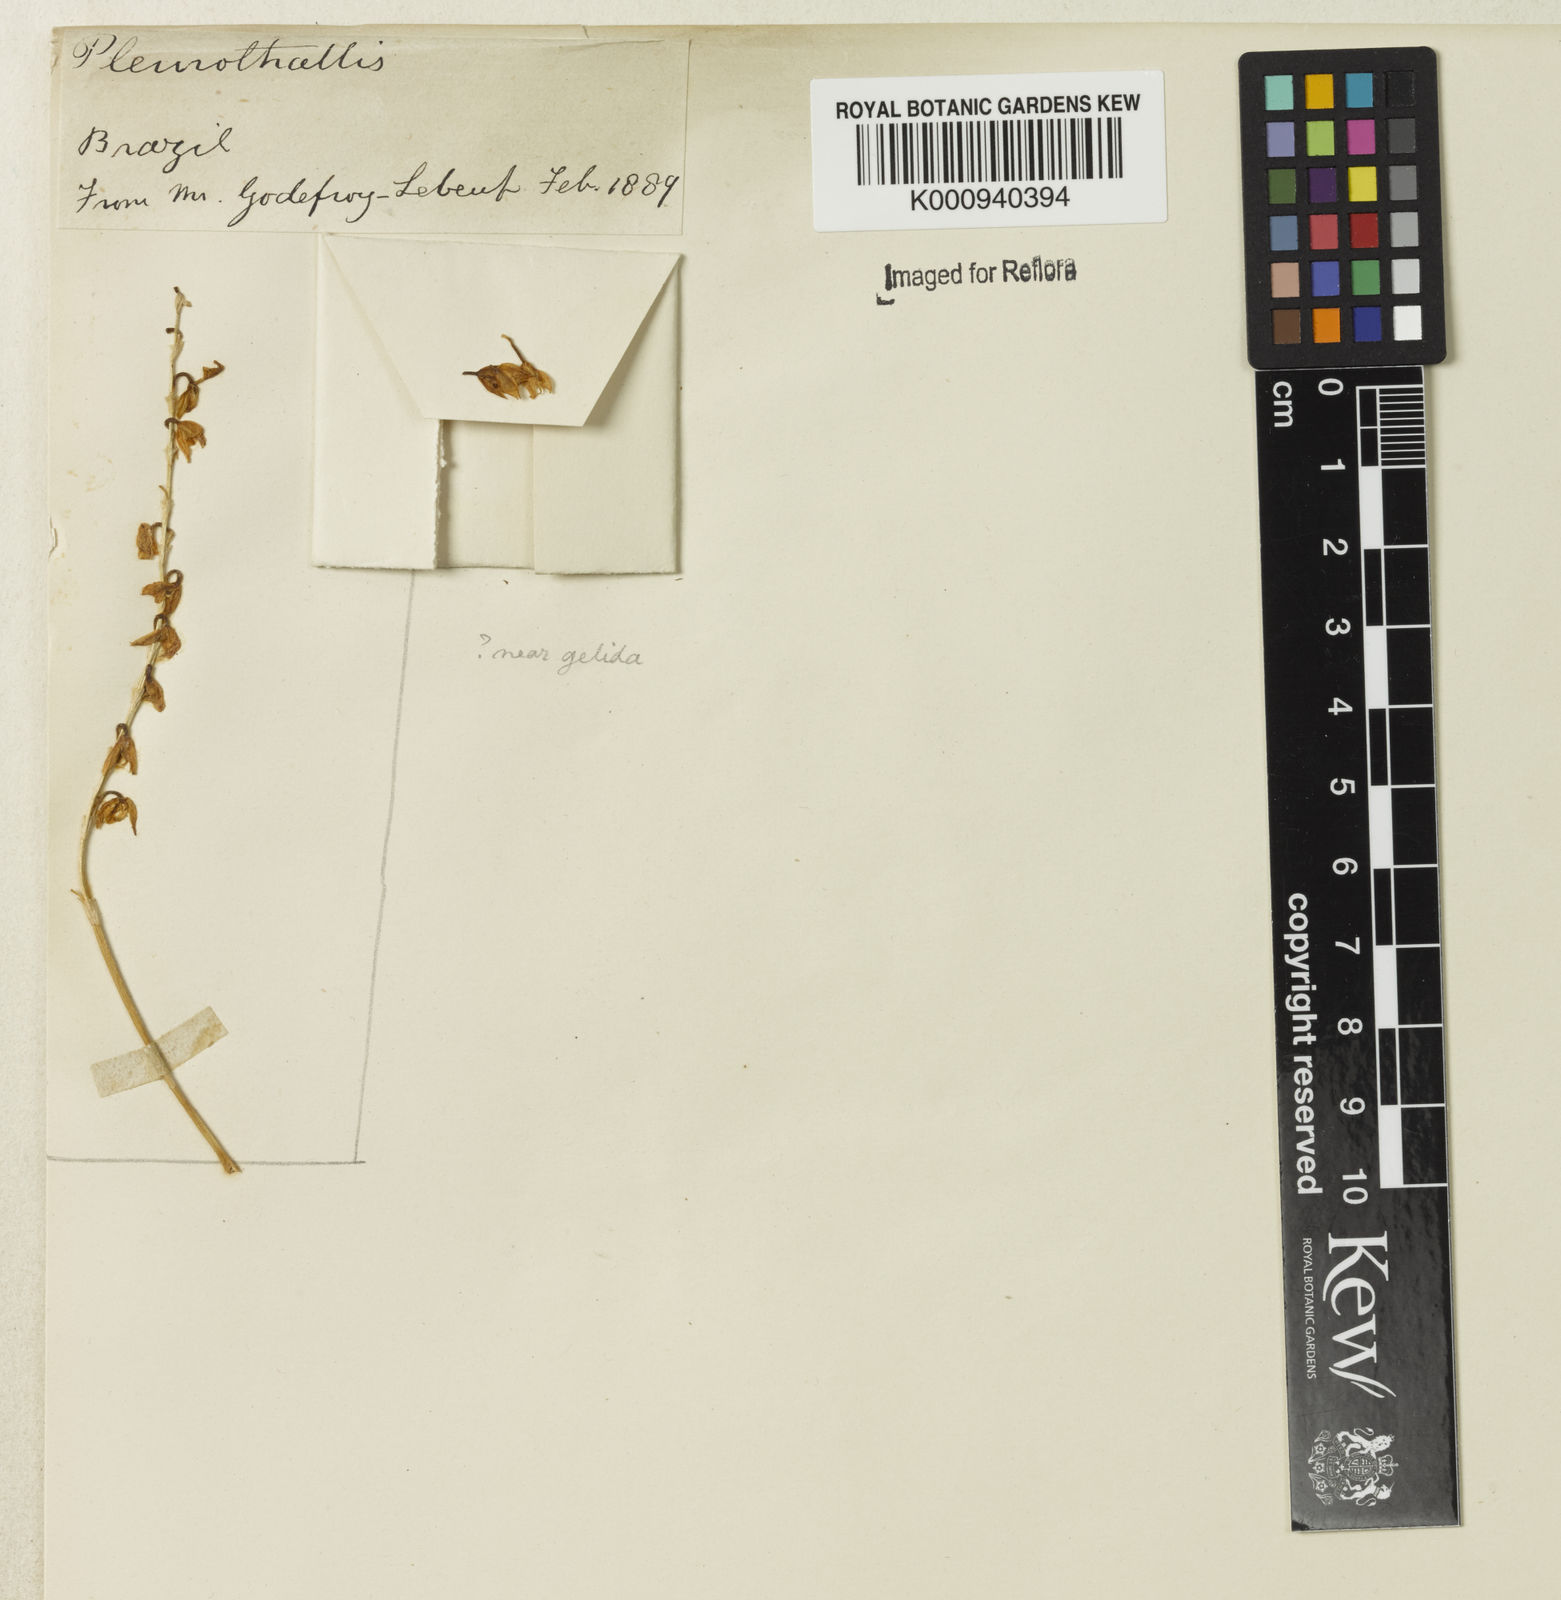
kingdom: Plantae
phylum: Tracheophyta
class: Liliopsida
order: Asparagales
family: Orchidaceae
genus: Pleurothallis
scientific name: Pleurothallis
